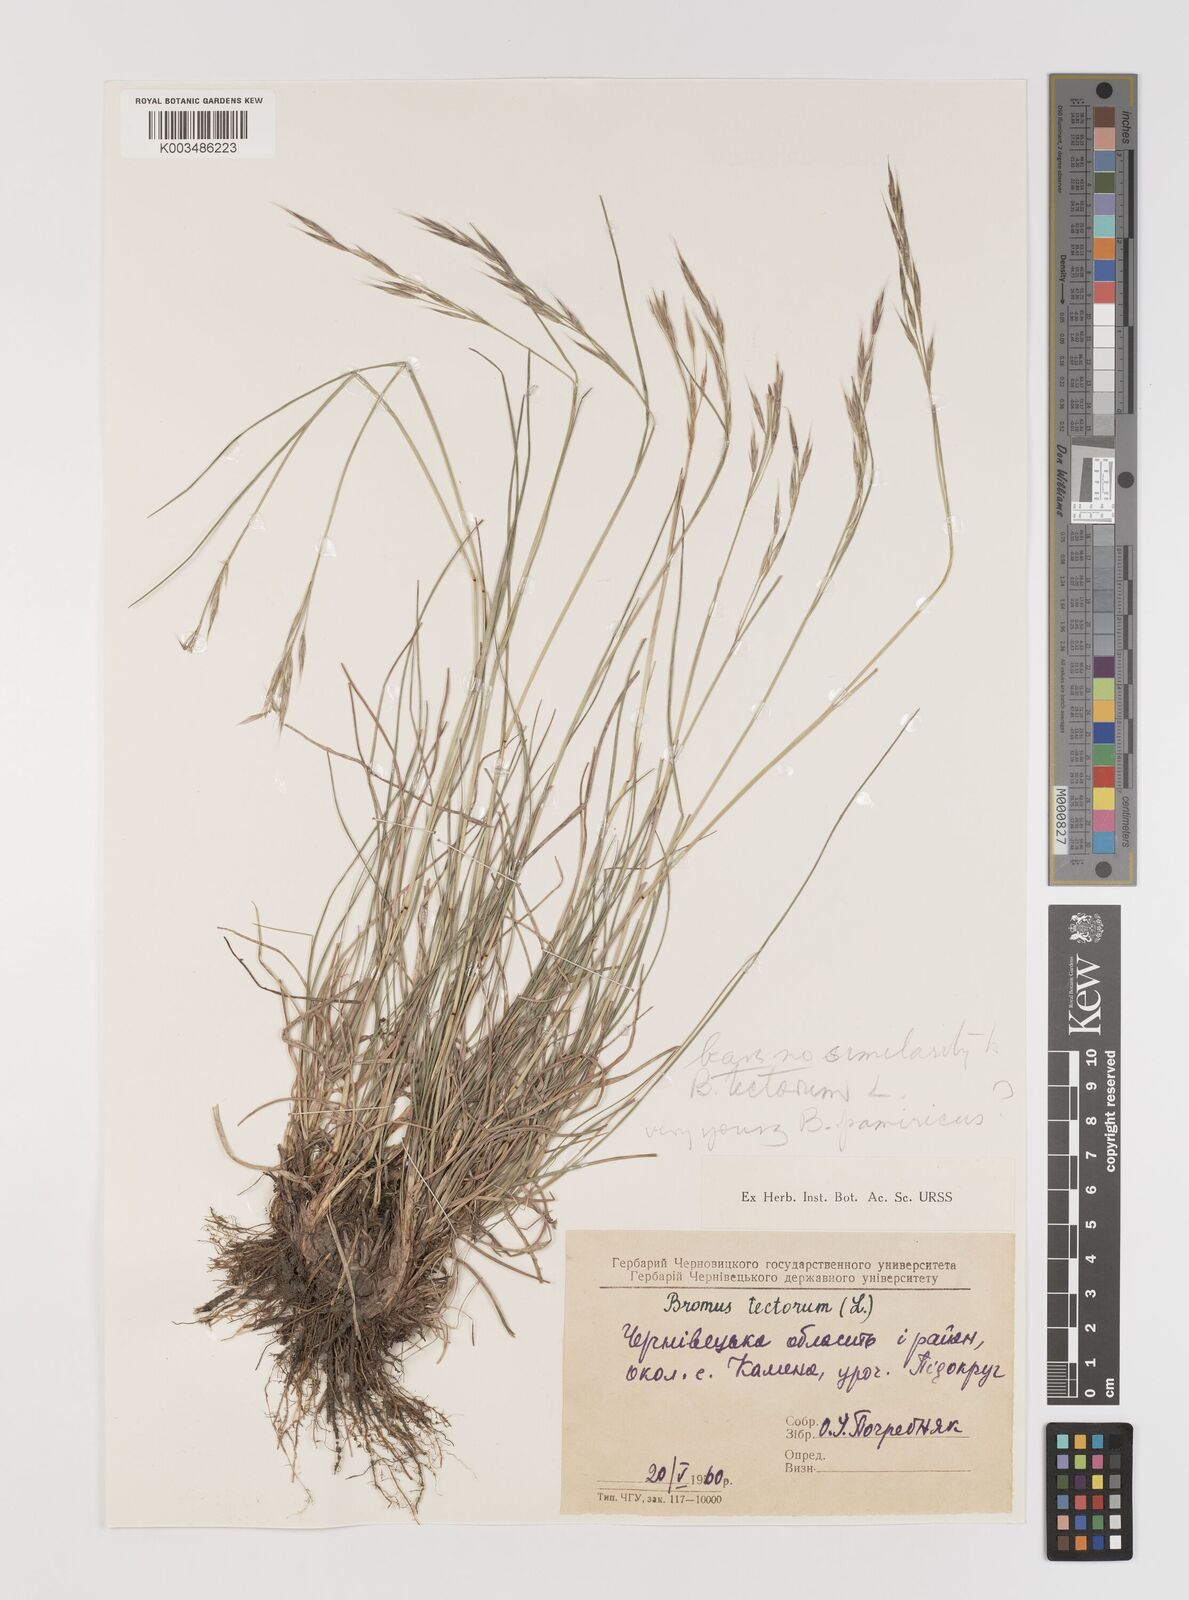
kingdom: Plantae
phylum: Tracheophyta
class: Liliopsida
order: Poales
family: Poaceae
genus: Bromus
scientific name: Bromus
